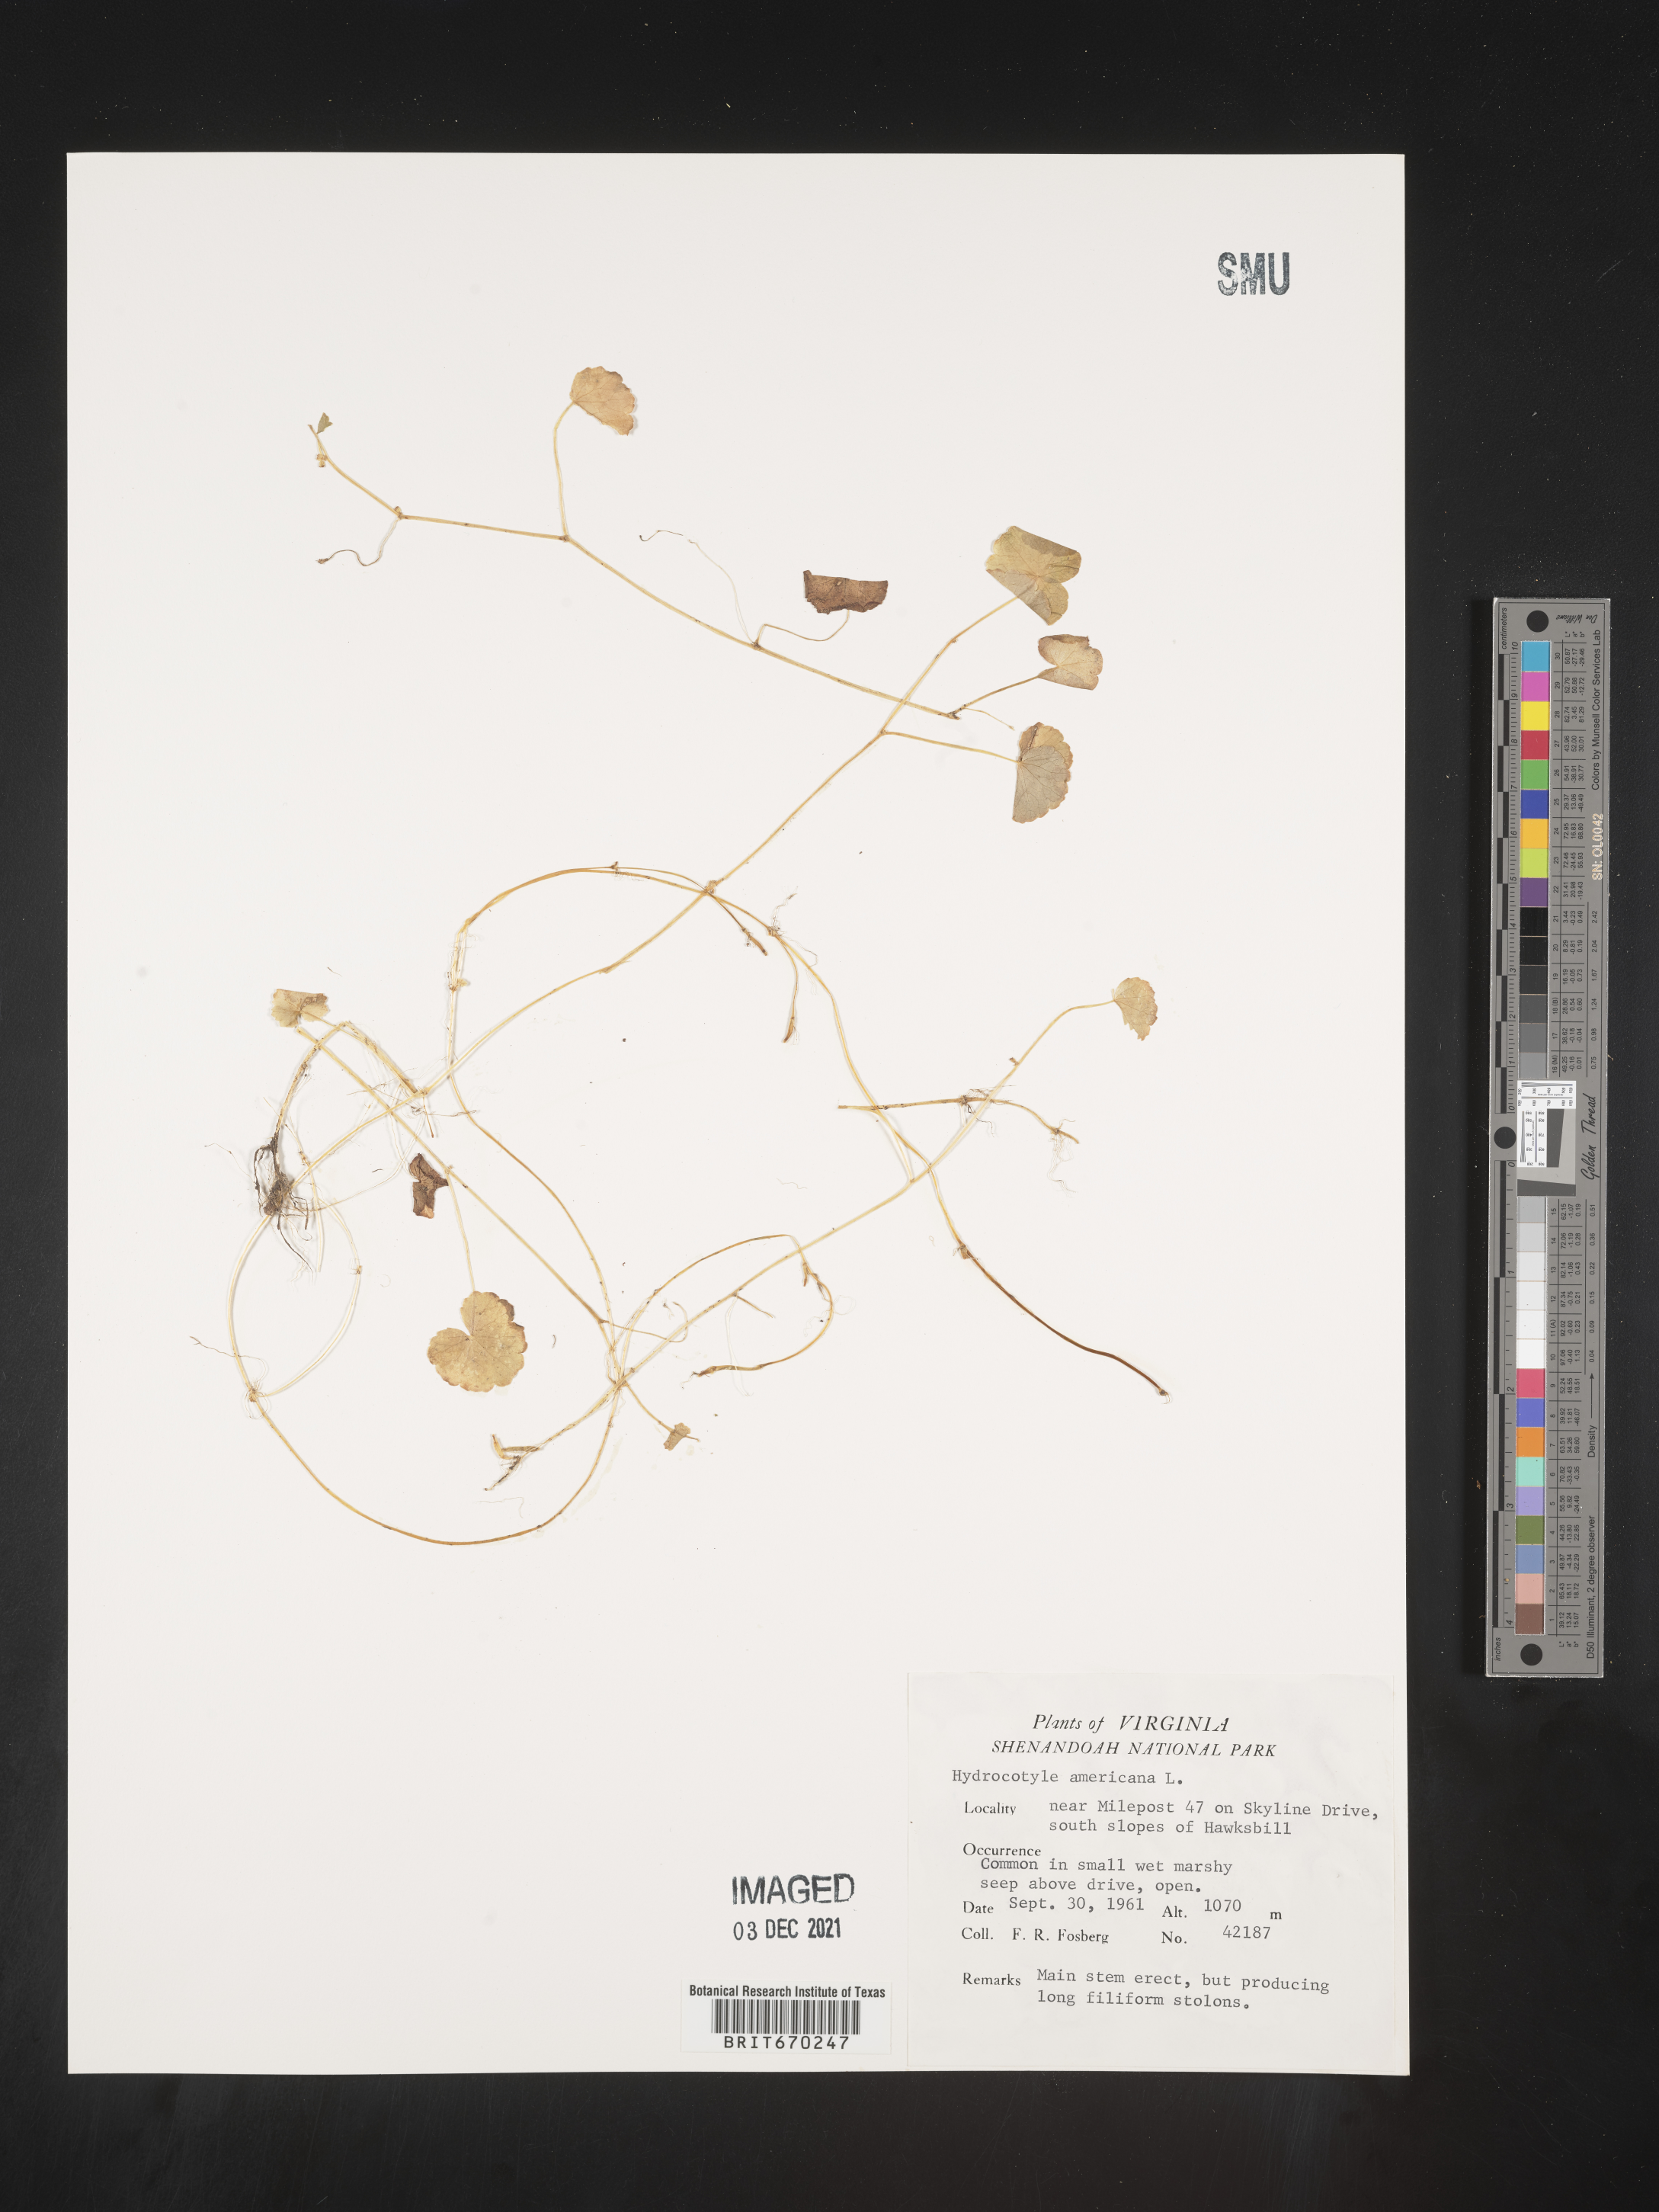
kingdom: Plantae
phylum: Tracheophyta
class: Magnoliopsida
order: Apiales
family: Araliaceae
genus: Hydrocotyle
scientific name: Hydrocotyle
